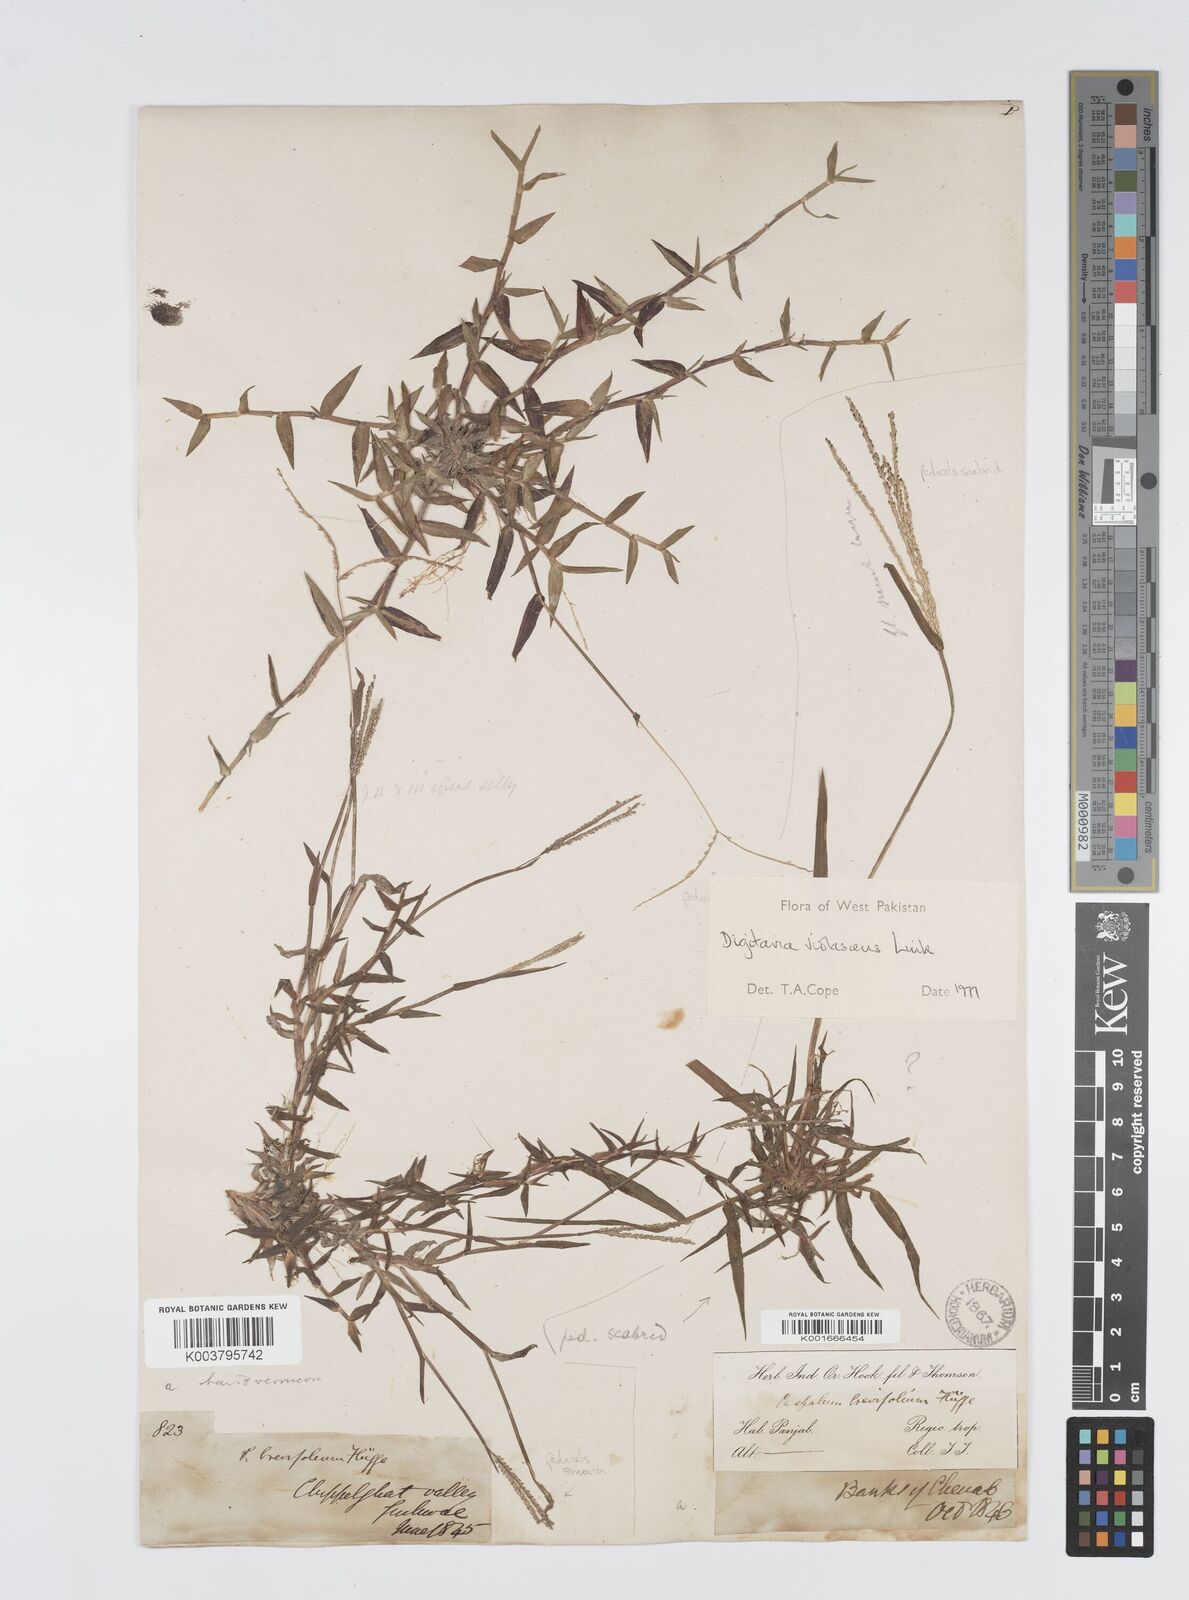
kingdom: Plantae
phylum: Tracheophyta
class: Liliopsida
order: Poales
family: Poaceae
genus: Digitaria
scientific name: Digitaria violascens
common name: Violet crabgrass
